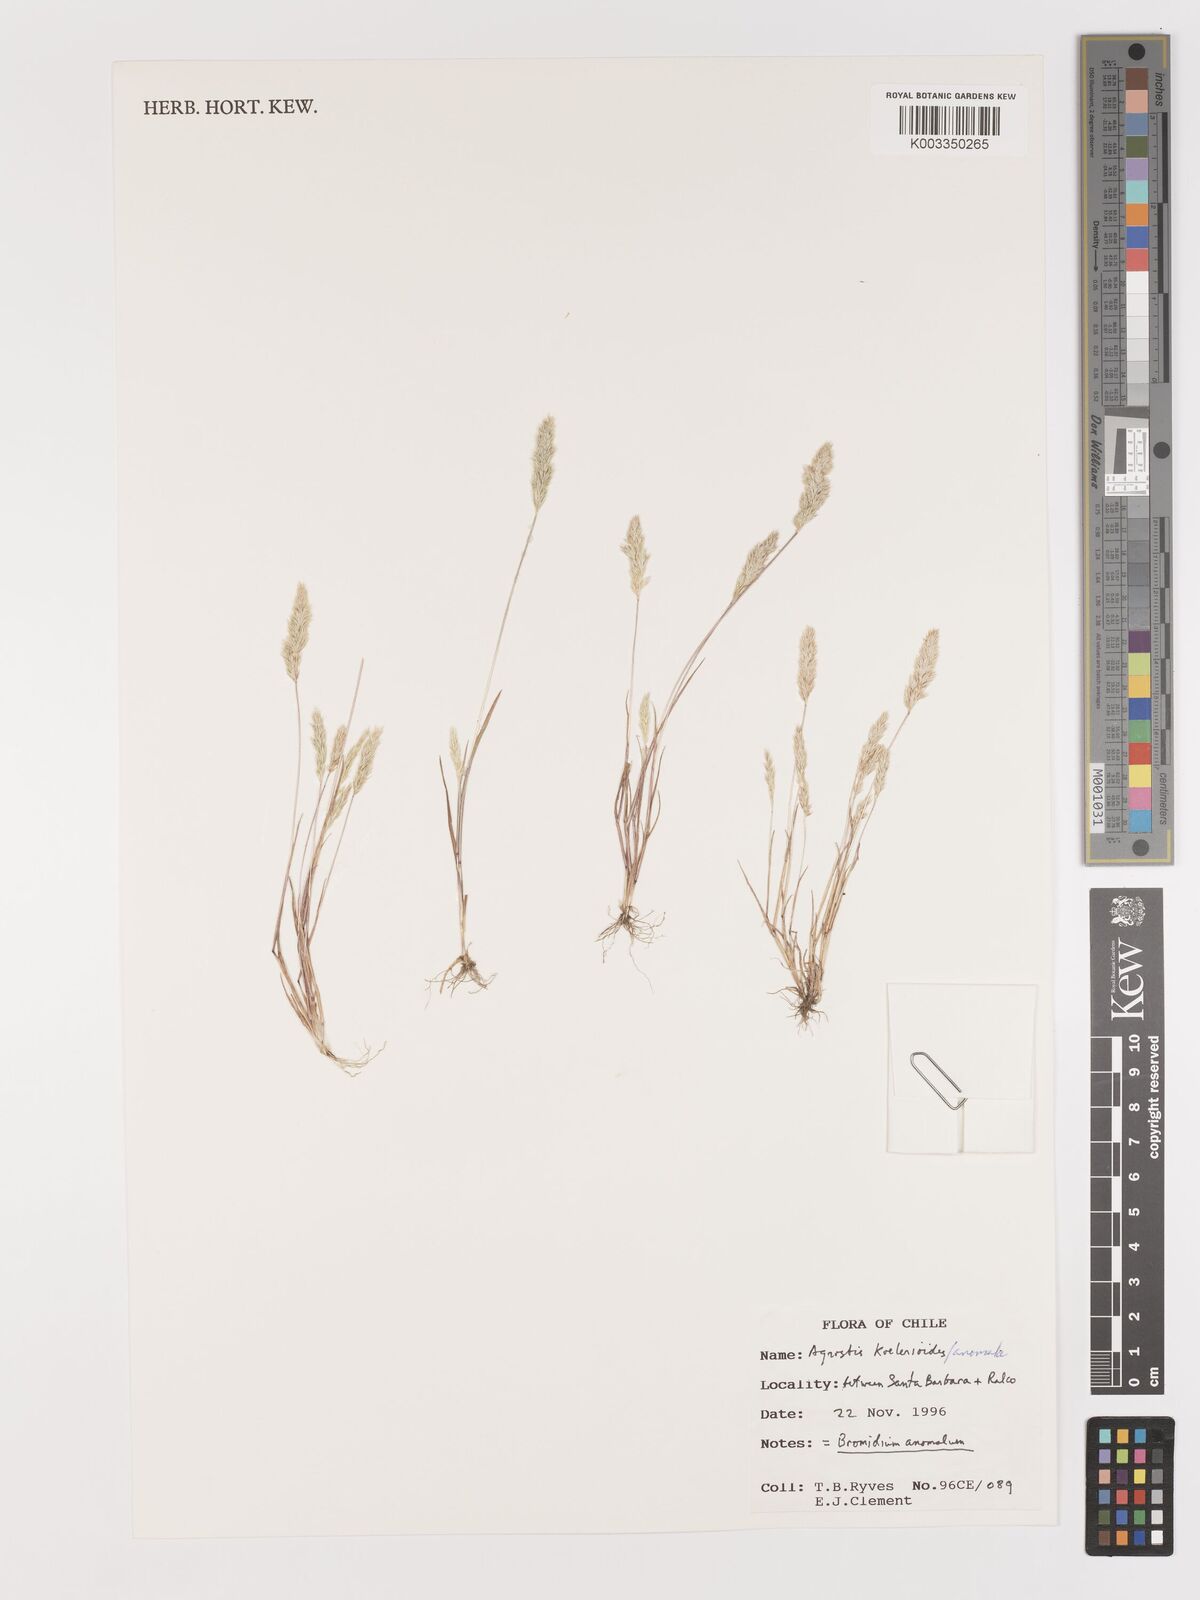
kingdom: Plantae
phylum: Tracheophyta
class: Liliopsida
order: Poales
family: Poaceae
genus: Agrostis
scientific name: Agrostis koelerioides
